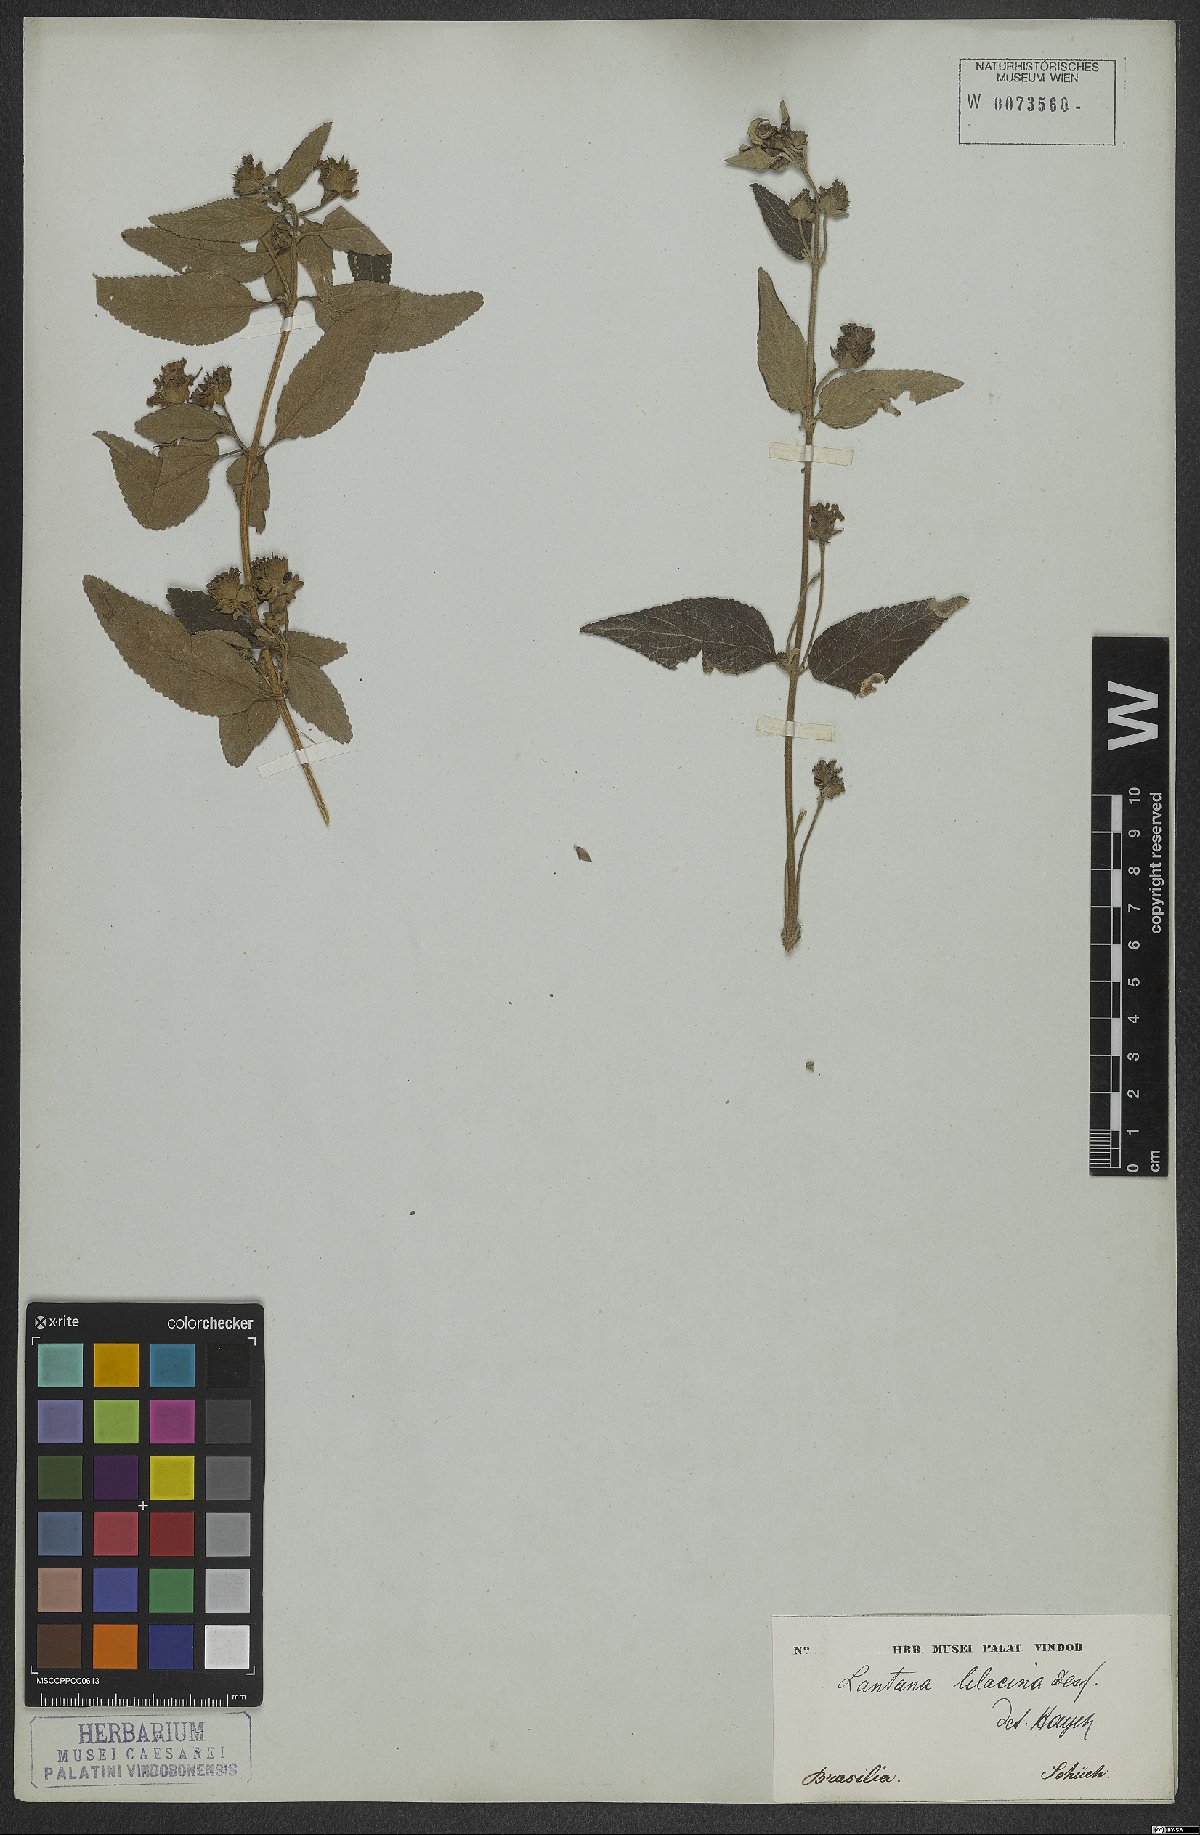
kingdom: Plantae
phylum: Tracheophyta
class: Magnoliopsida
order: Lamiales
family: Verbenaceae
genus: Lantana
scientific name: Lantana fucata
